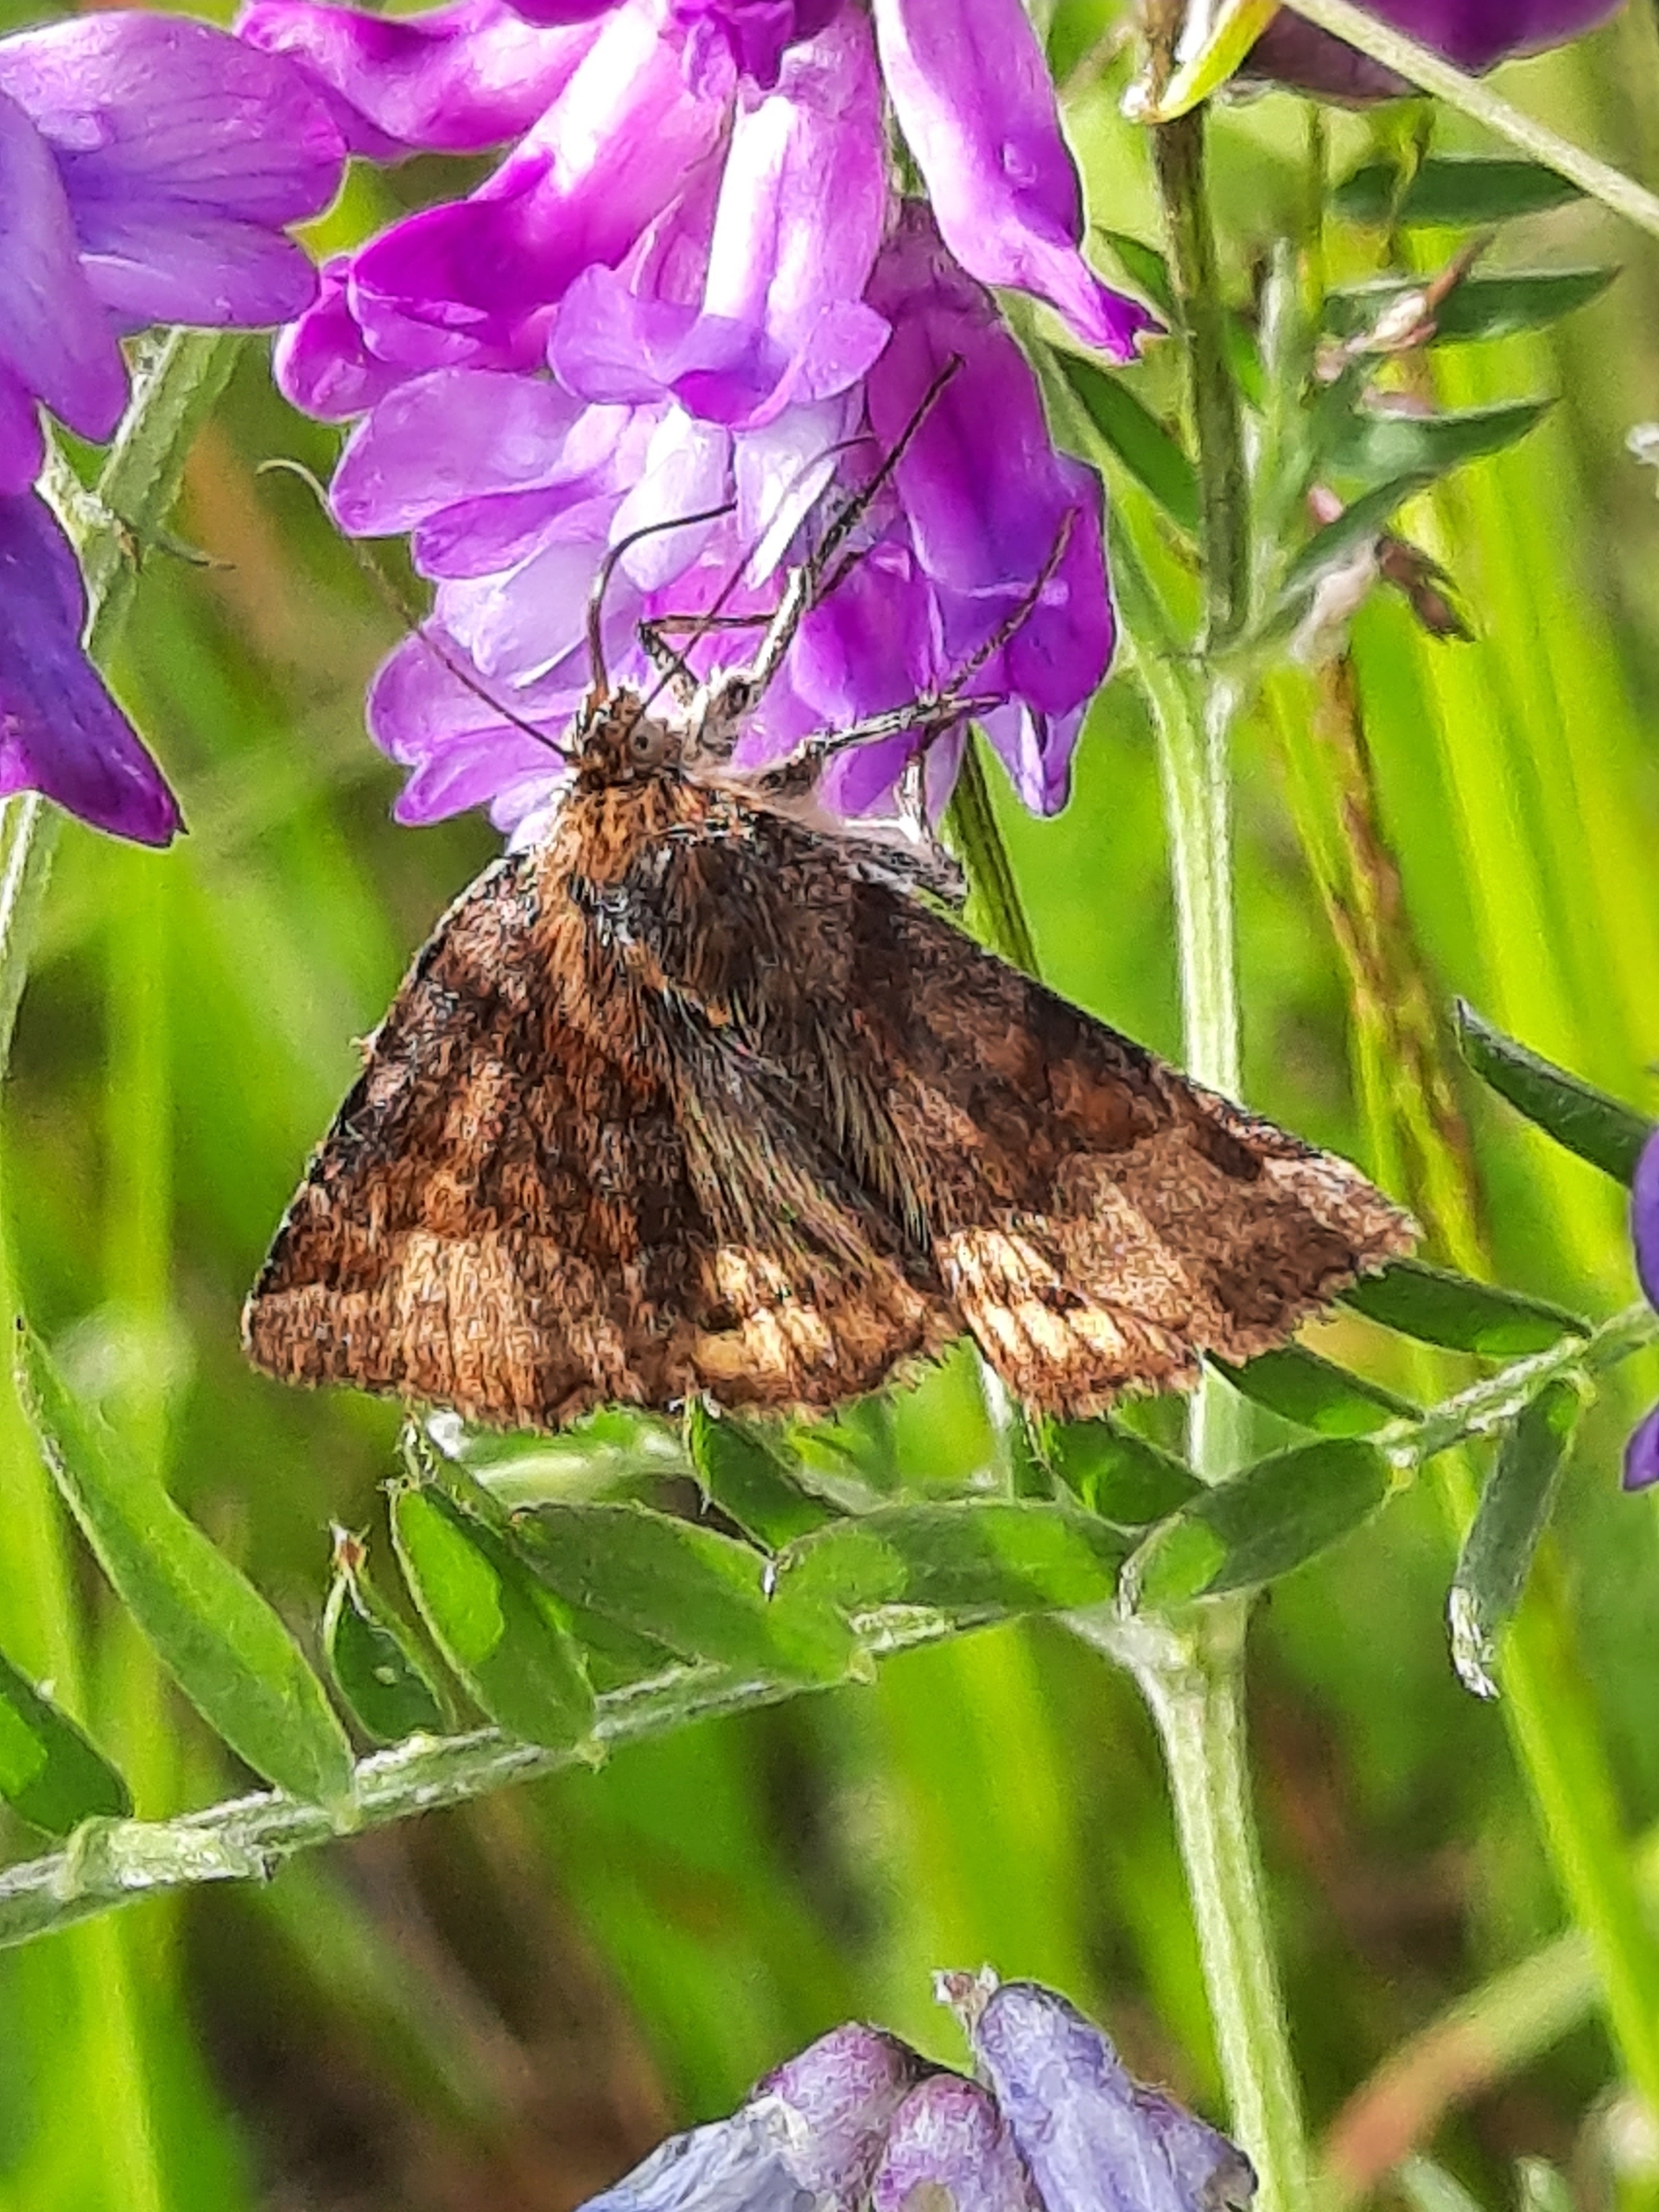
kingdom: Animalia
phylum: Arthropoda
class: Insecta
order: Lepidoptera
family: Erebidae
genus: Euclidia
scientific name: Euclidia glyphica
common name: Brun kløverugle
